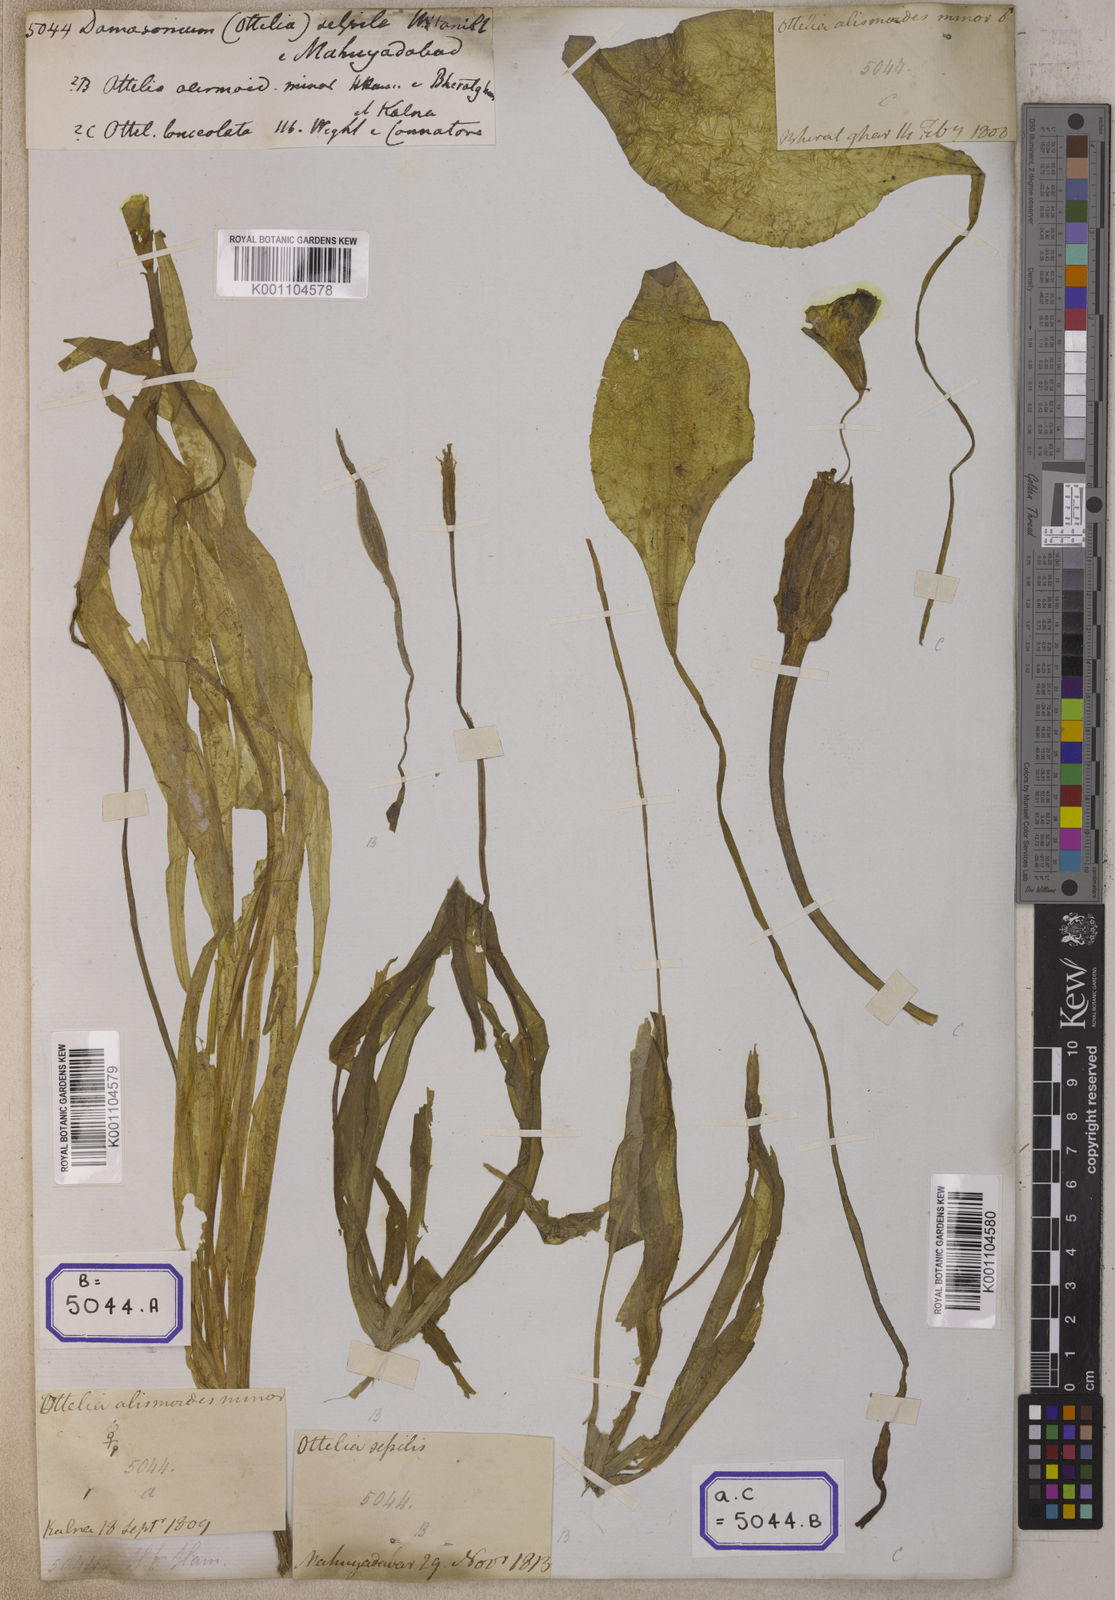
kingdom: Plantae
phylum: Tracheophyta
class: Liliopsida
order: Alismatales
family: Alismataceae
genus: Damasonium
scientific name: Damasonium
